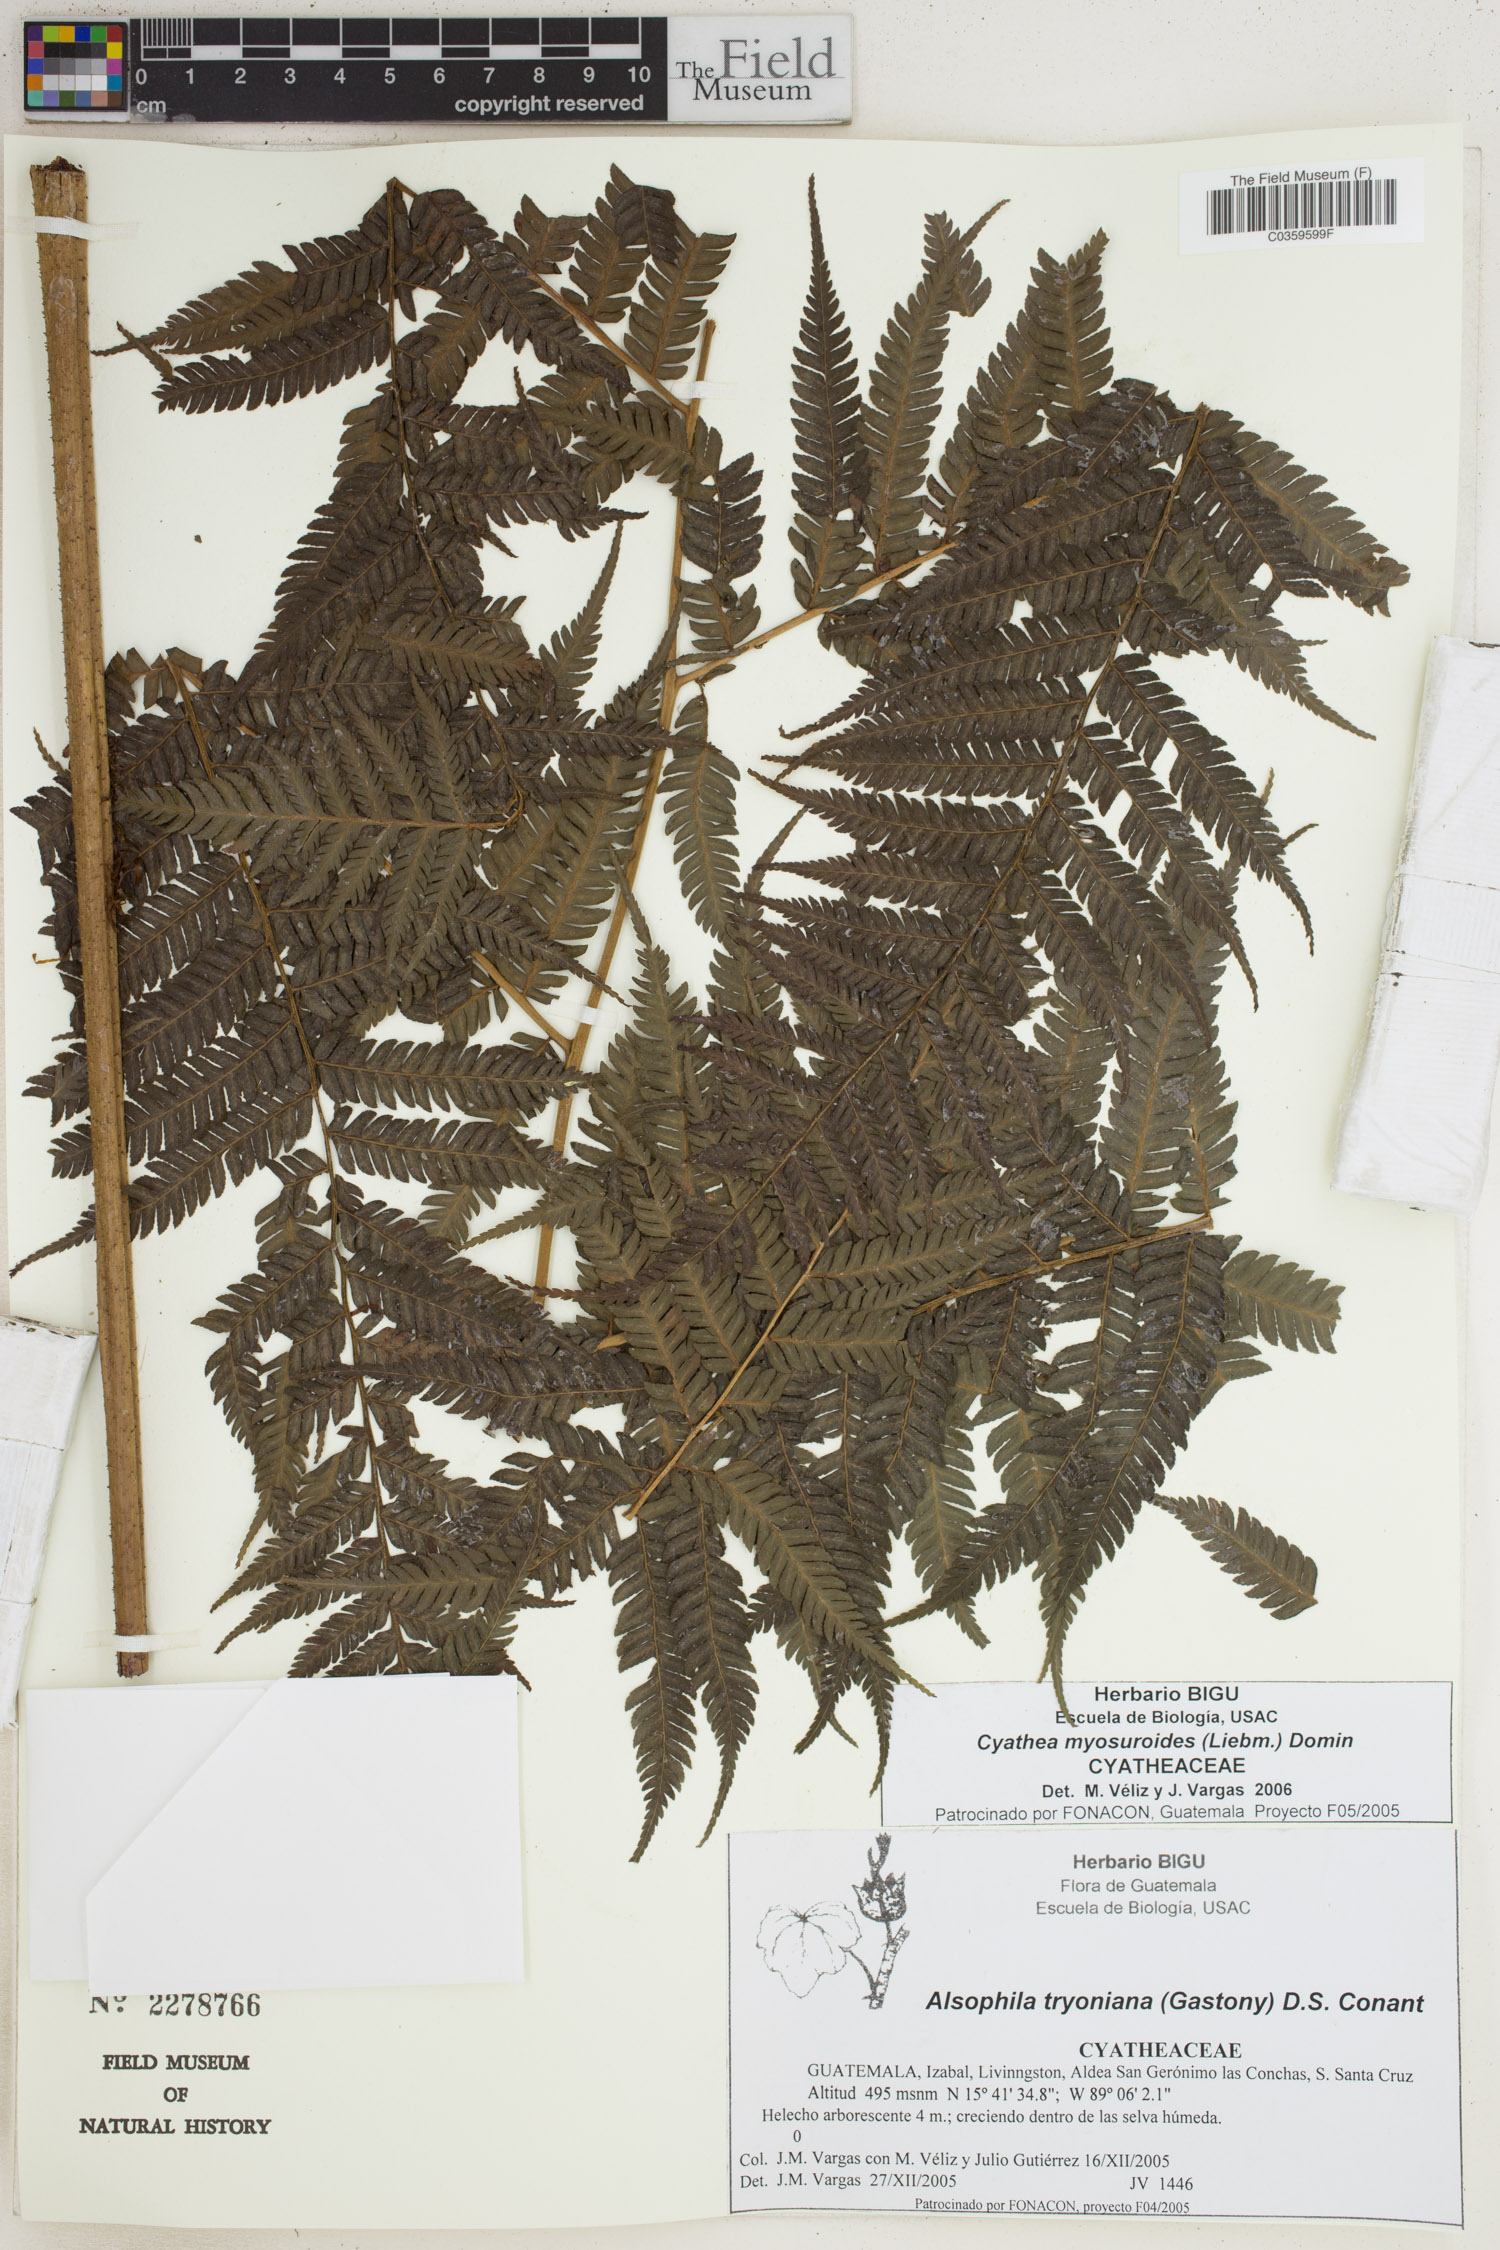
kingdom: Plantae
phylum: Tracheophyta
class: Polypodiopsida
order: Cyatheales
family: Cyatheaceae
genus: Sphaeropteris
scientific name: Sphaeropteris myosuroides
